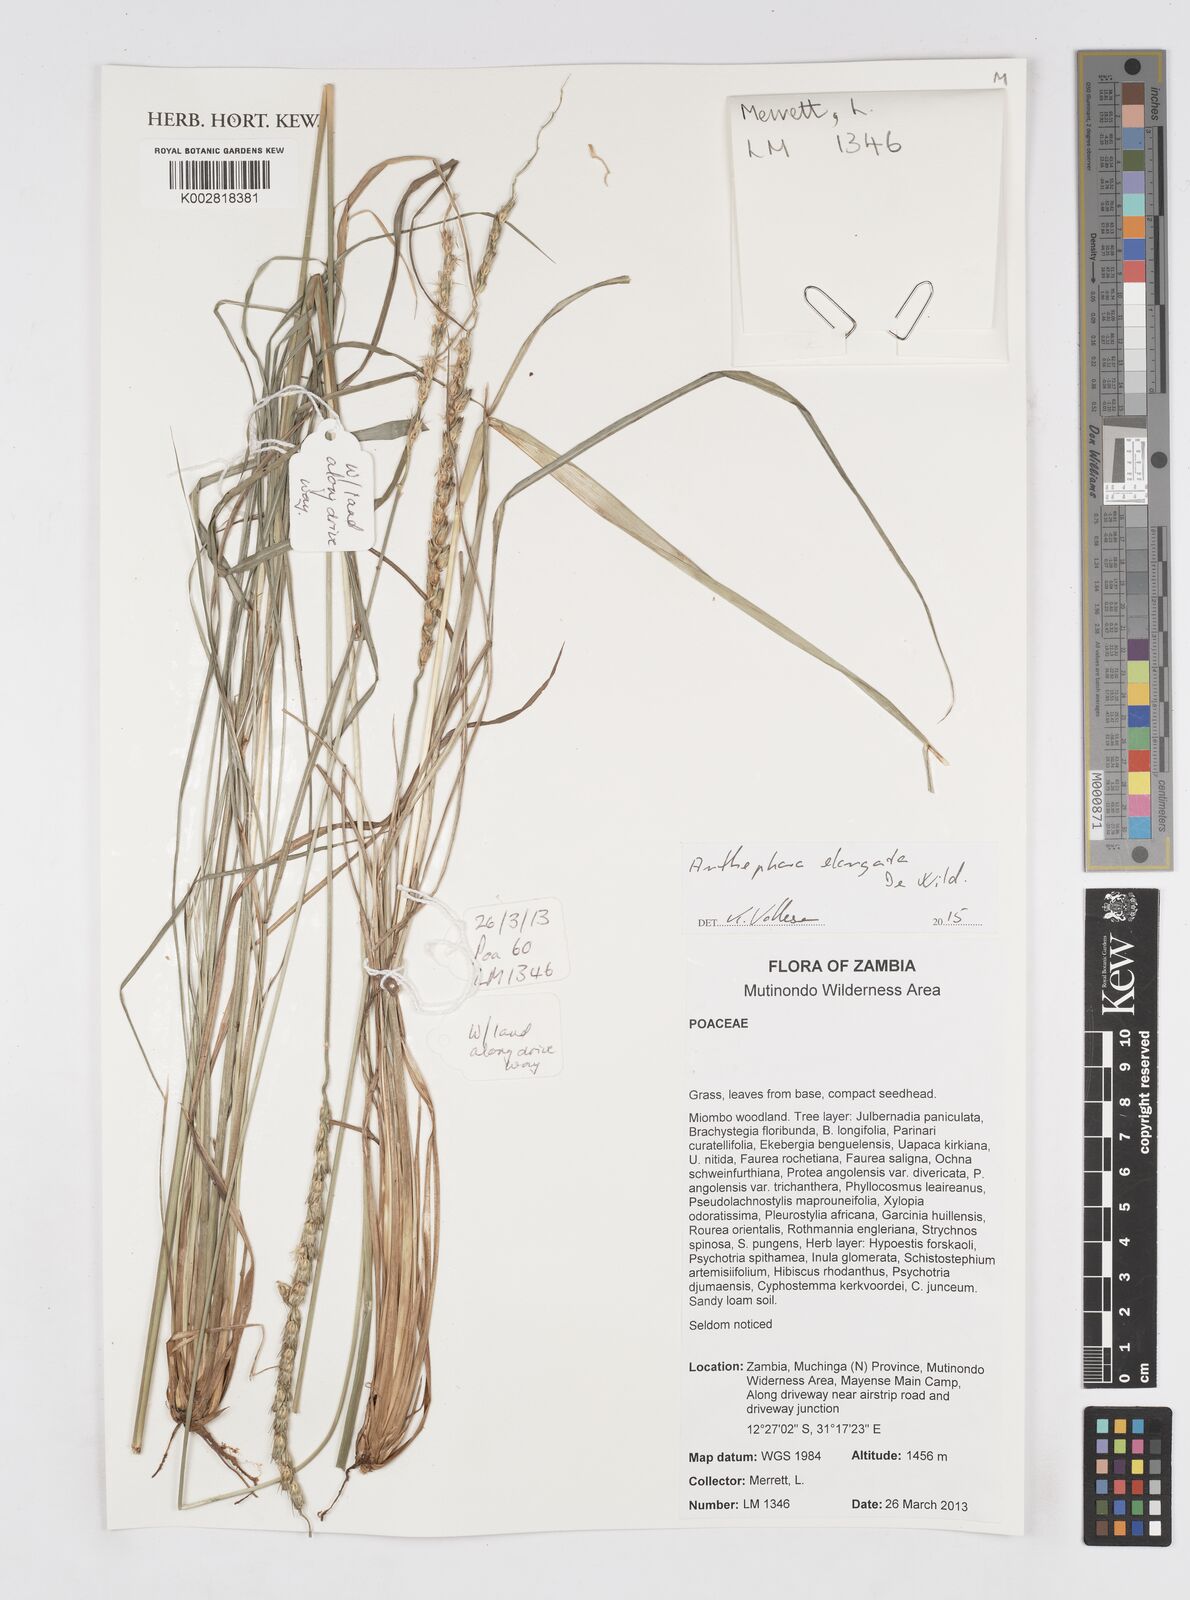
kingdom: Plantae
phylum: Tracheophyta
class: Liliopsida
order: Poales
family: Poaceae
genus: Anthephora
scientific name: Anthephora elongata
